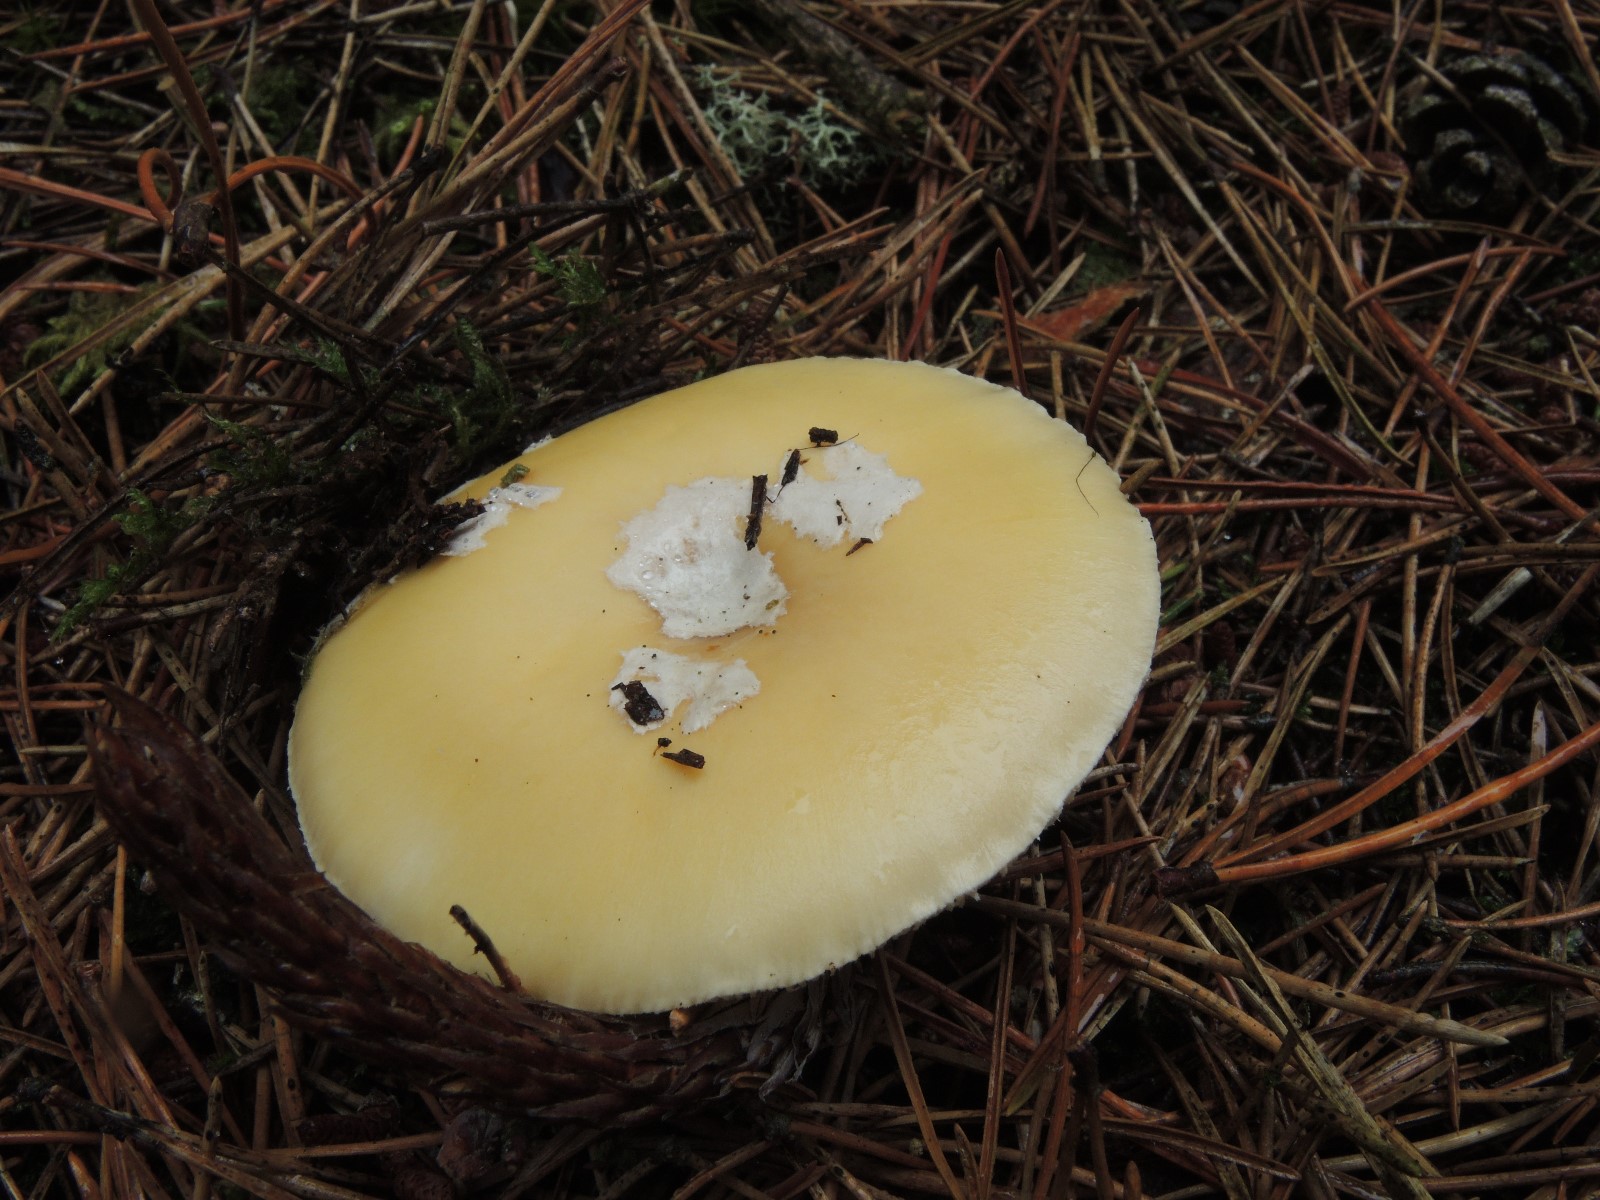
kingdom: Fungi
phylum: Basidiomycota
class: Agaricomycetes
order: Agaricales
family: Amanitaceae
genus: Amanita
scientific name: Amanita gemmata
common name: okkergul fluesvamp
